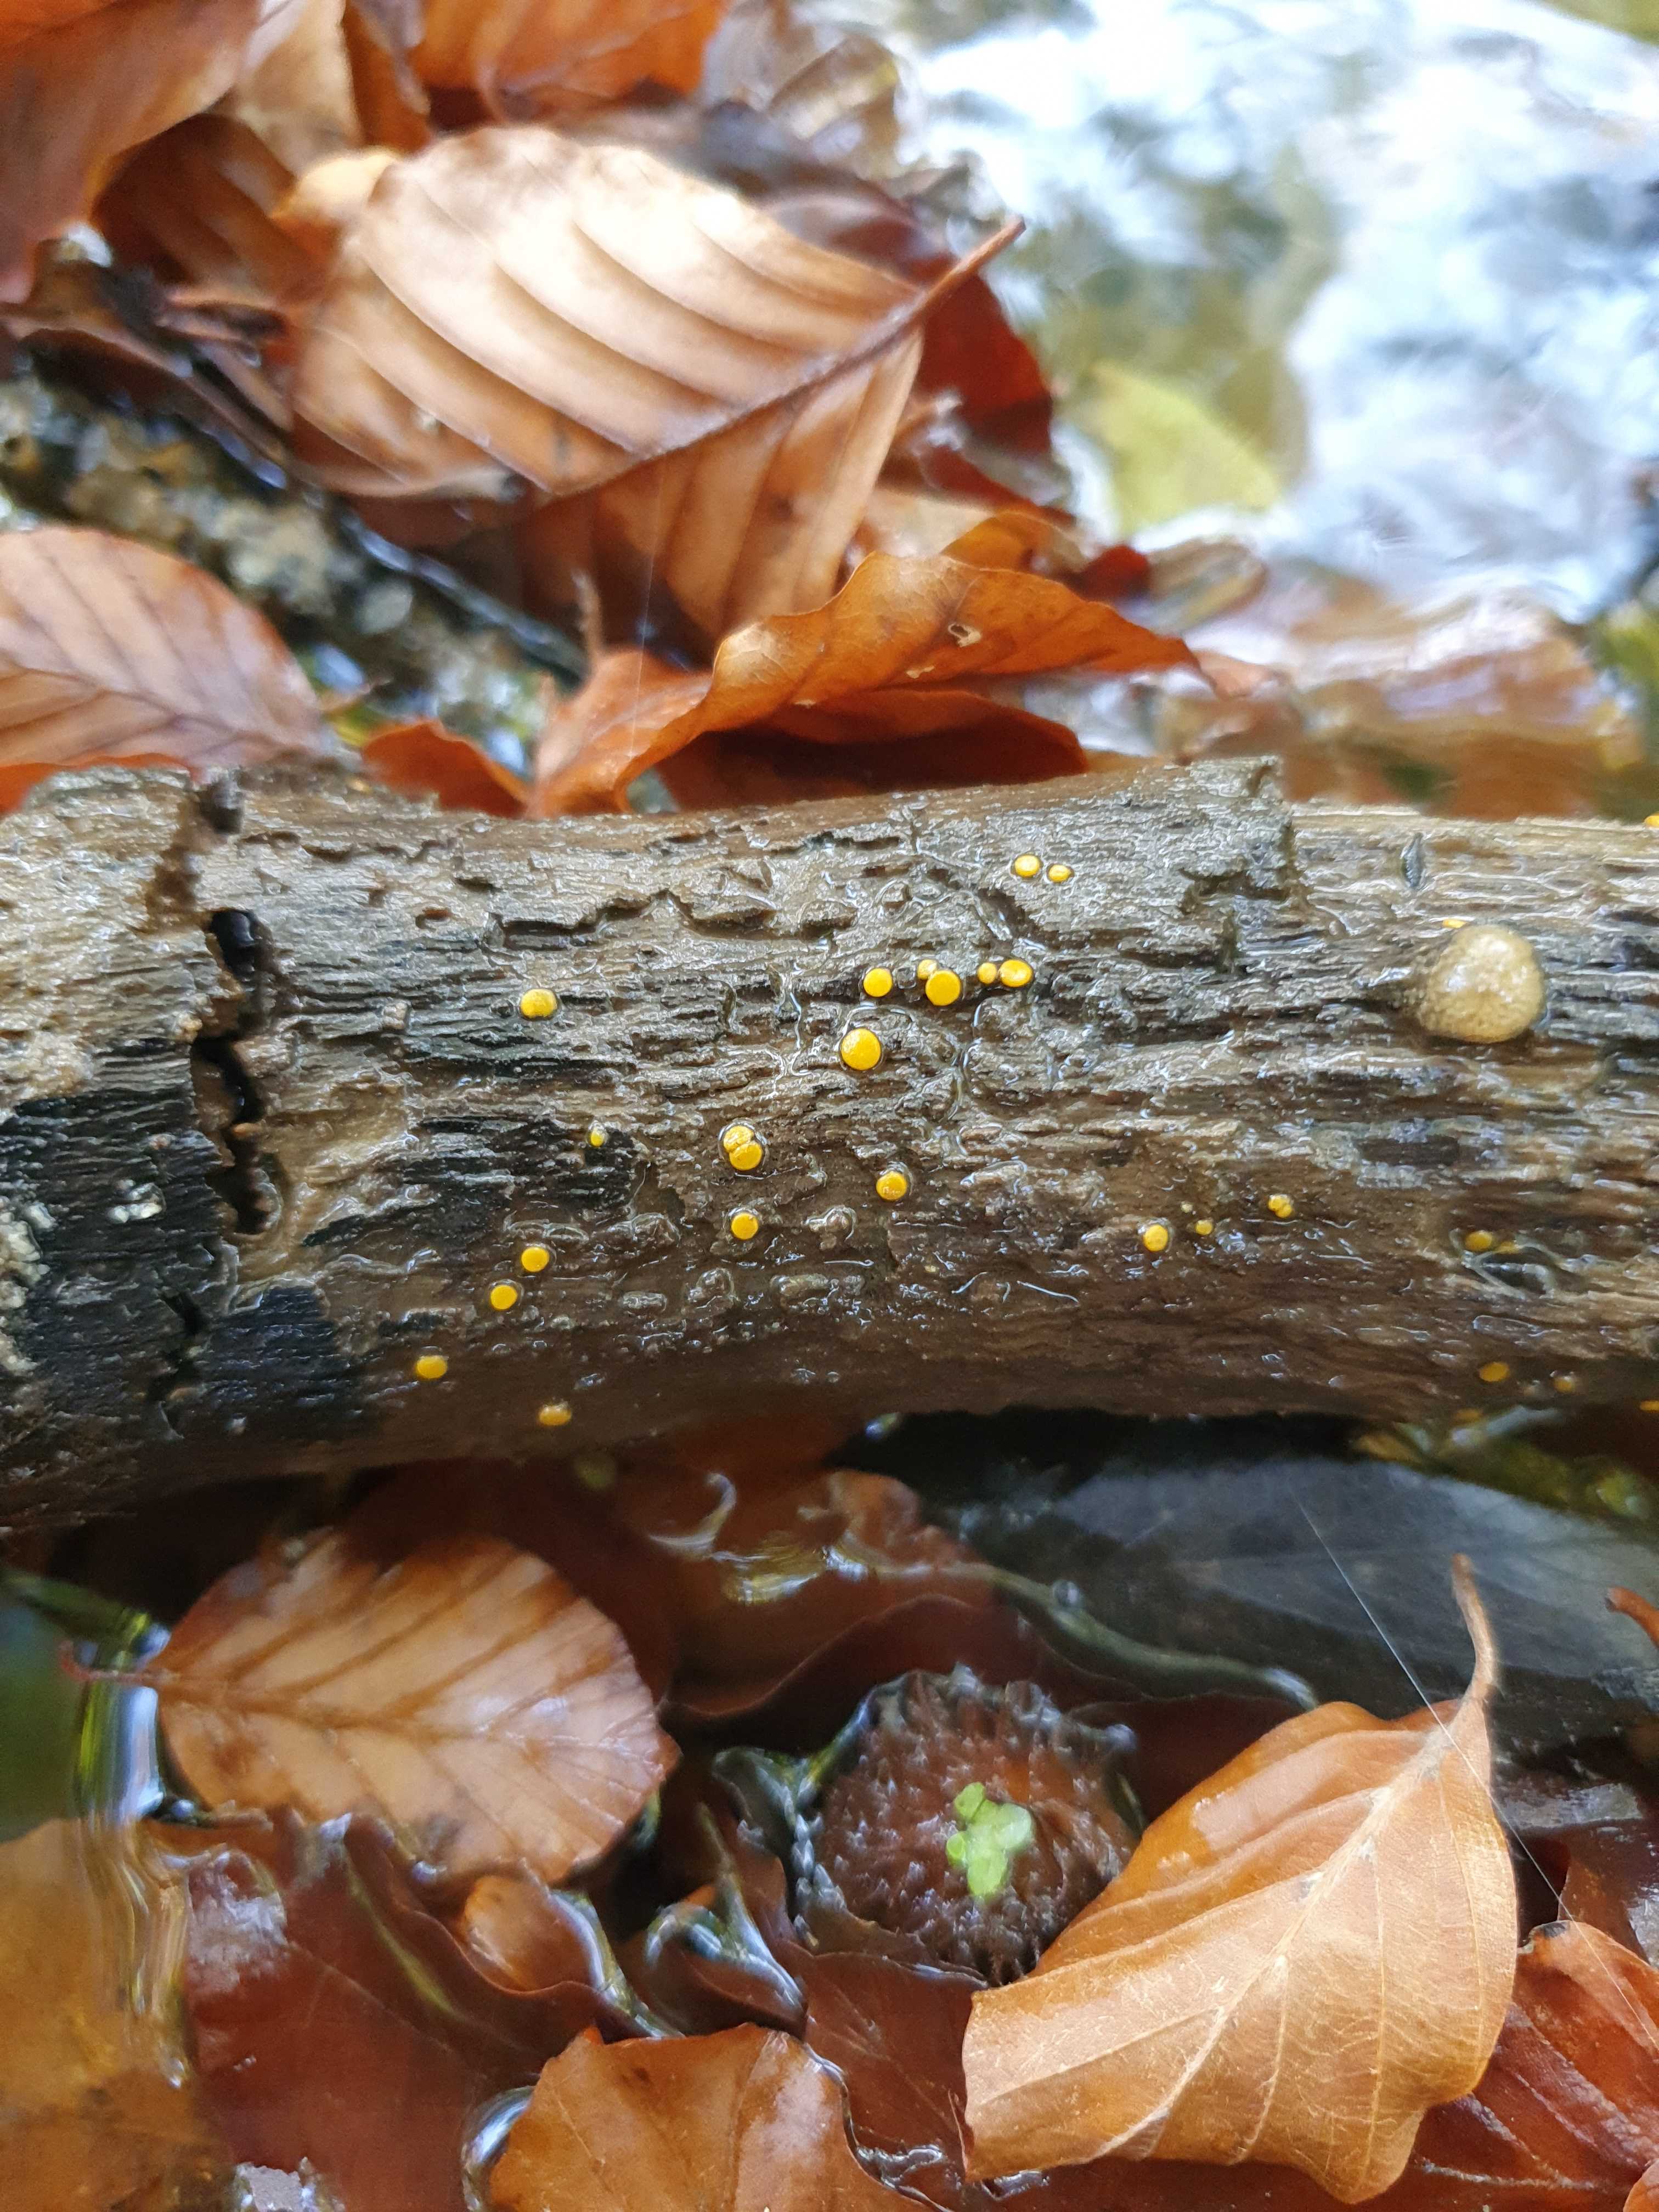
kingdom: Fungi
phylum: Ascomycota
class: Pezizomycetes
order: Pezizales
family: Pyronemataceae
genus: Miladina
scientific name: Miladina lecithina
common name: vandbæger
